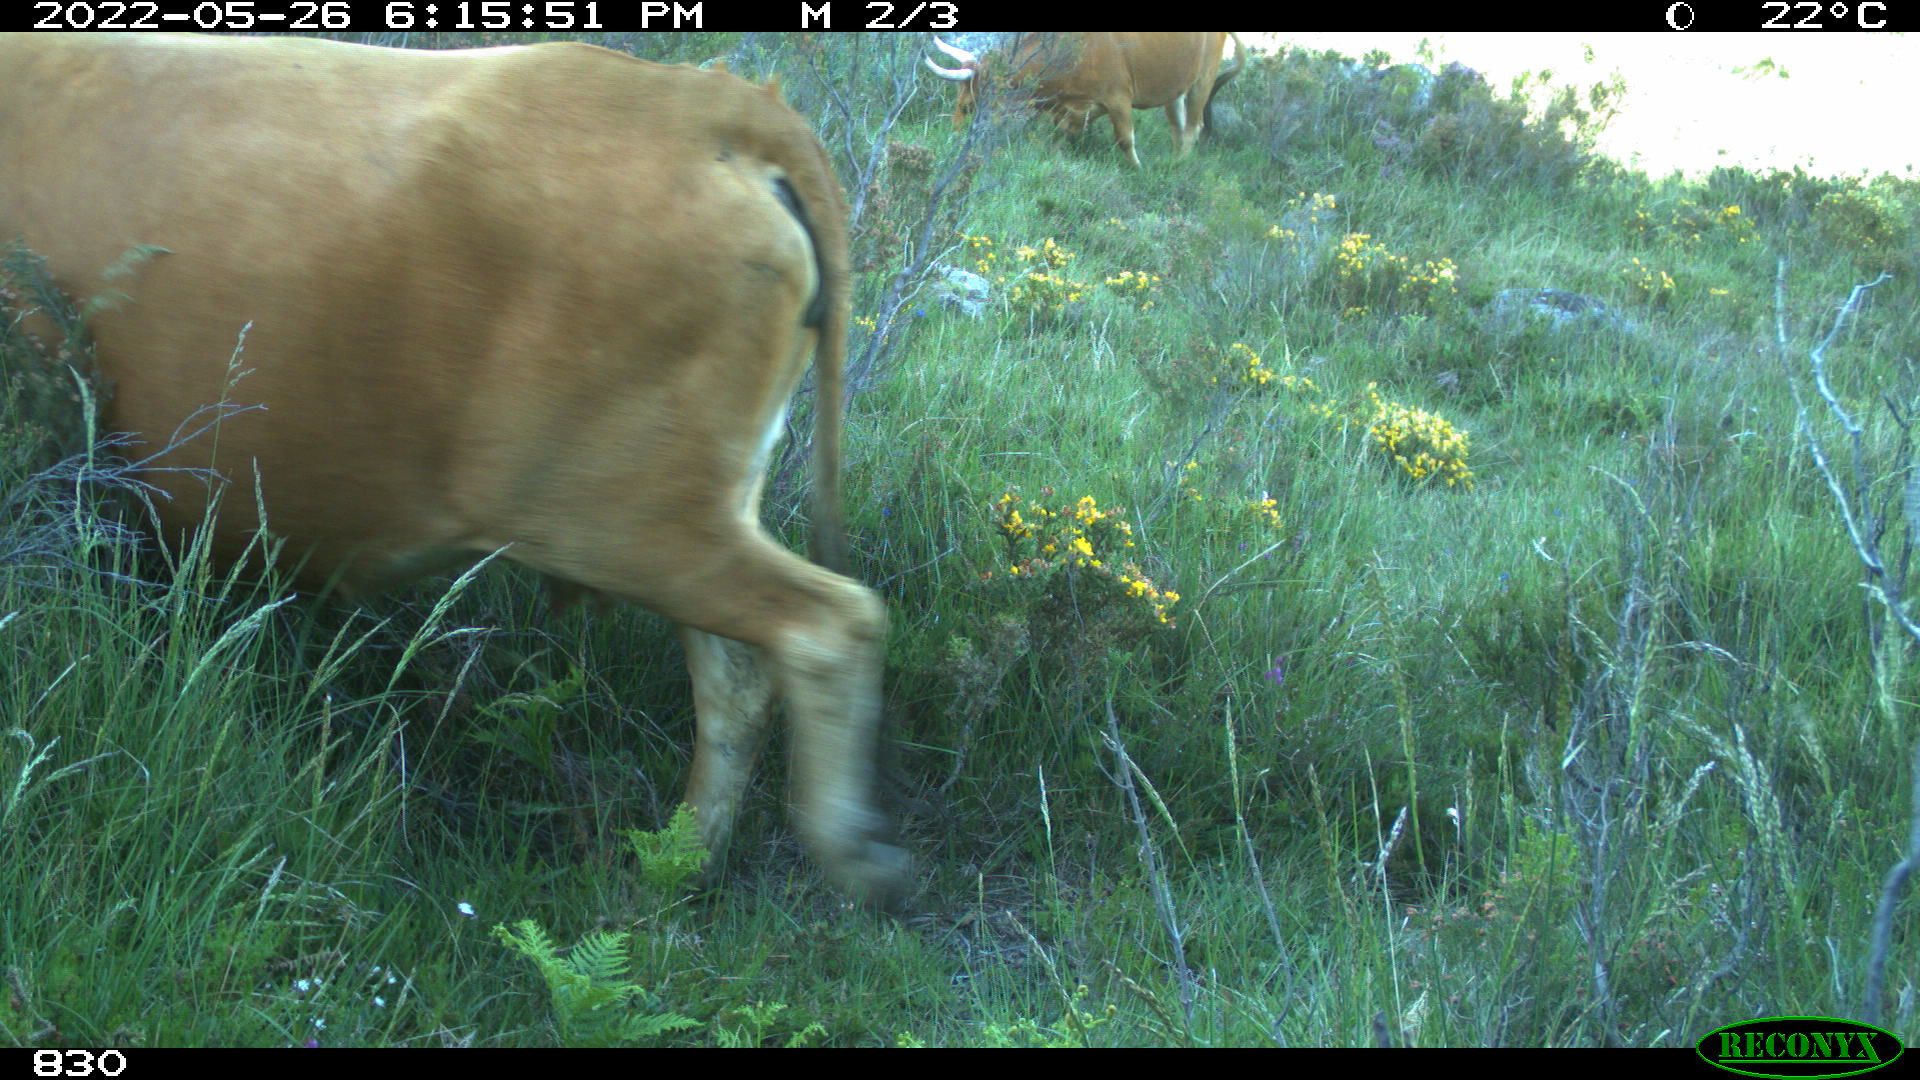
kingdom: Animalia
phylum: Chordata
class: Mammalia
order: Artiodactyla
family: Bovidae
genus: Bos
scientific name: Bos taurus
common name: Domesticated cattle
